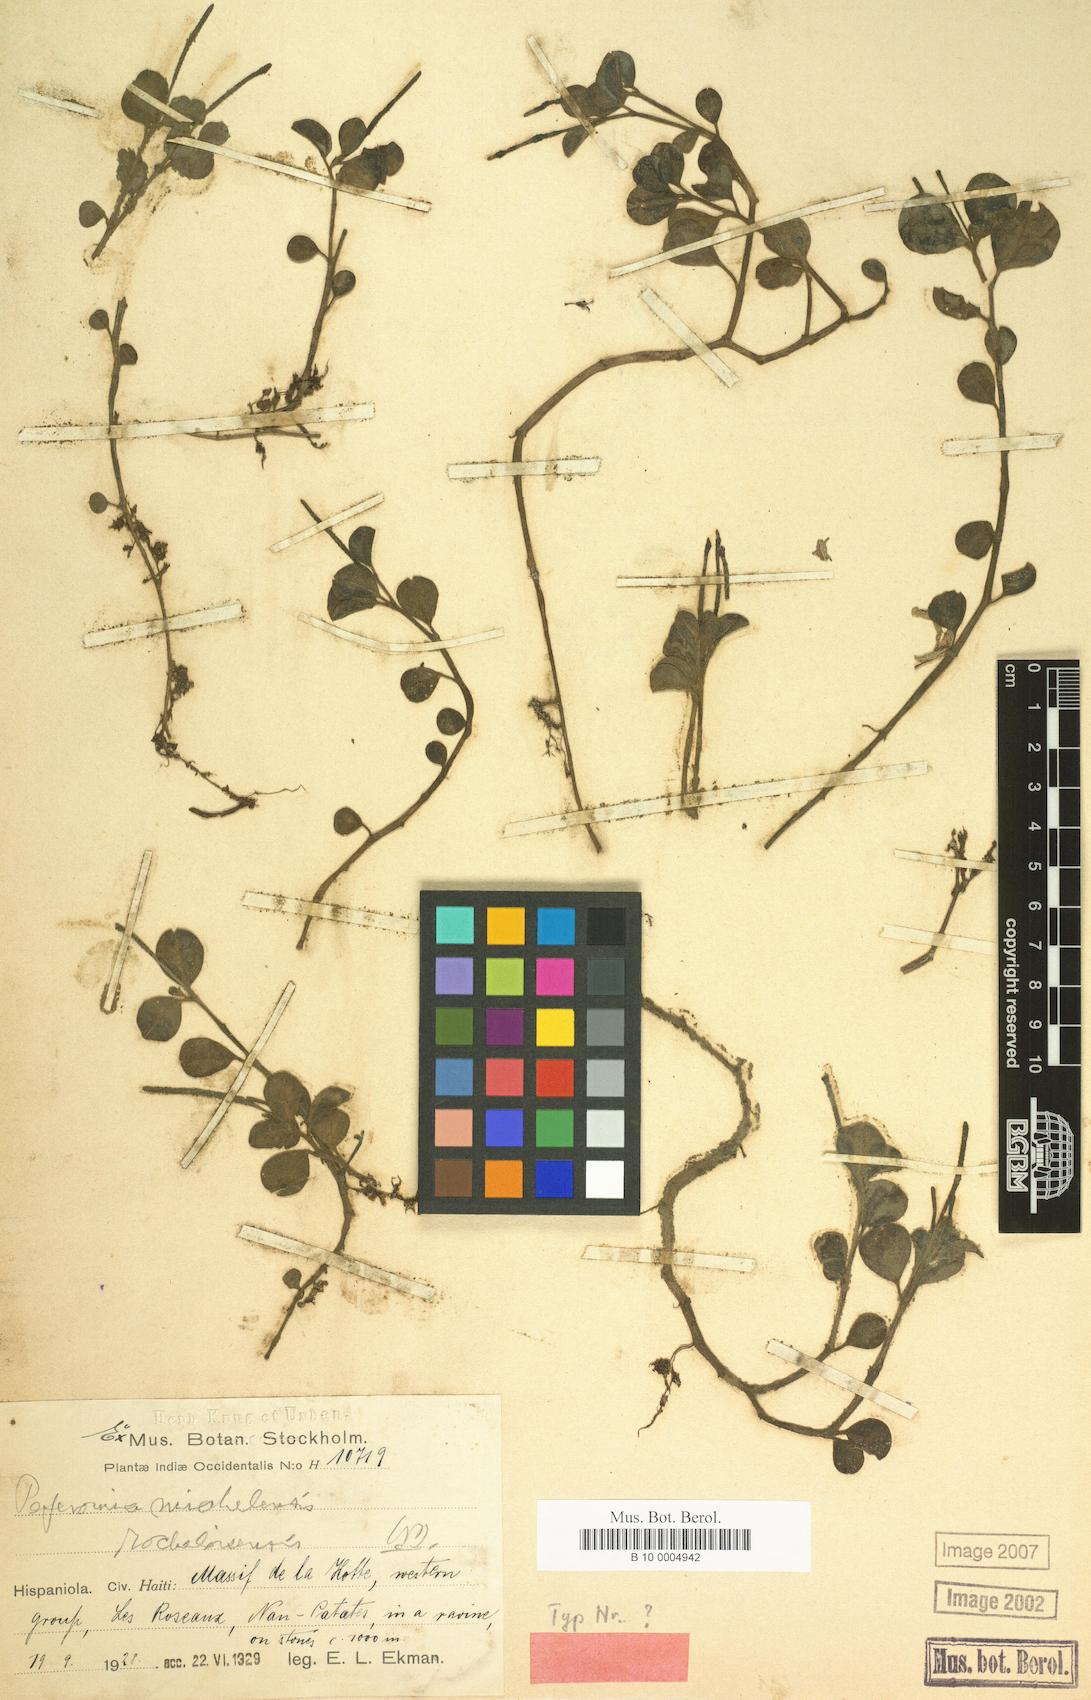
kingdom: Plantae
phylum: Tracheophyta
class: Magnoliopsida
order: Piperales
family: Piperaceae
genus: Peperomia
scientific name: Peperomia spathophylla
